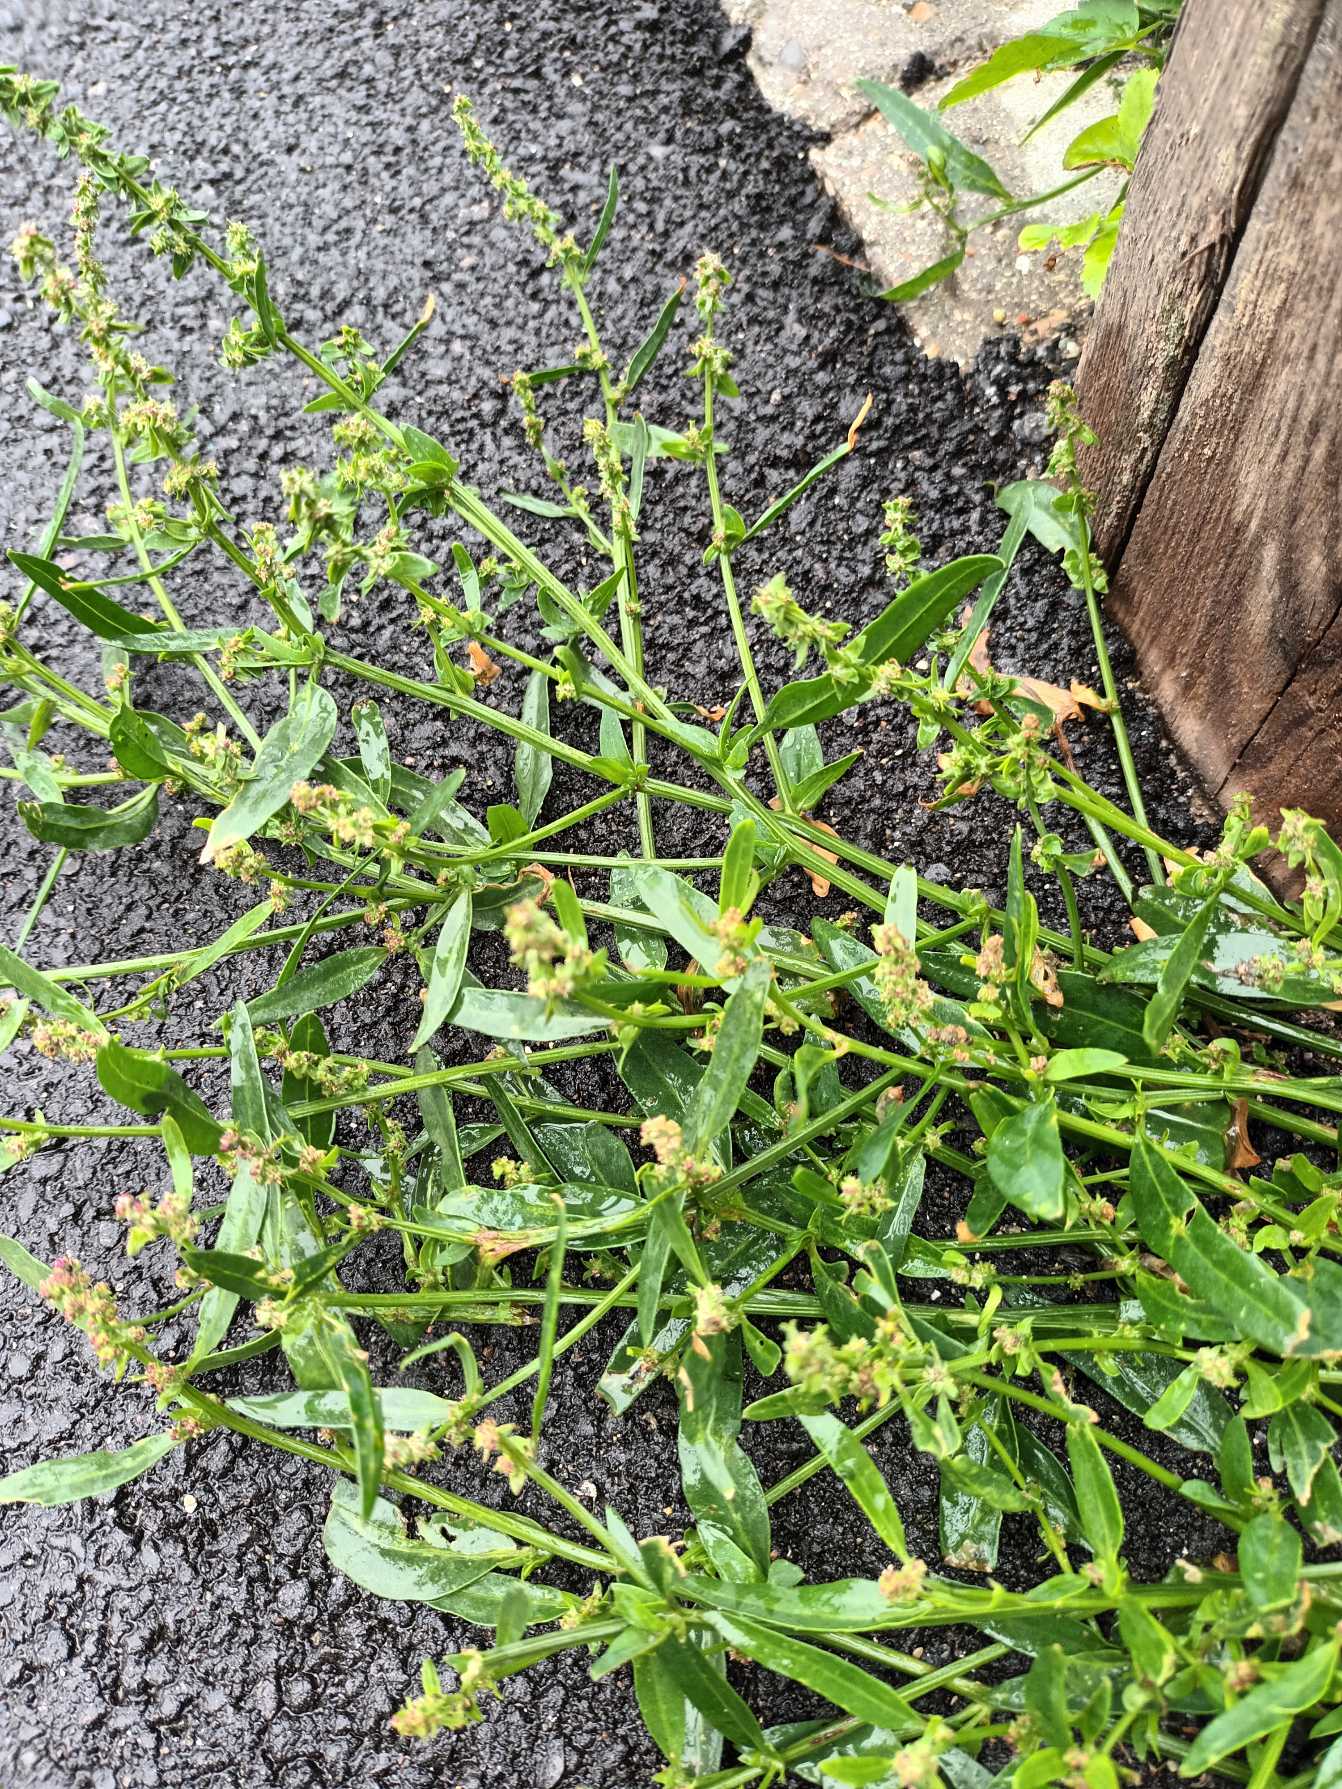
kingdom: Plantae
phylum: Tracheophyta
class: Magnoliopsida
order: Caryophyllales
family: Amaranthaceae
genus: Atriplex
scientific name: Atriplex patula
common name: Svine-mælde
